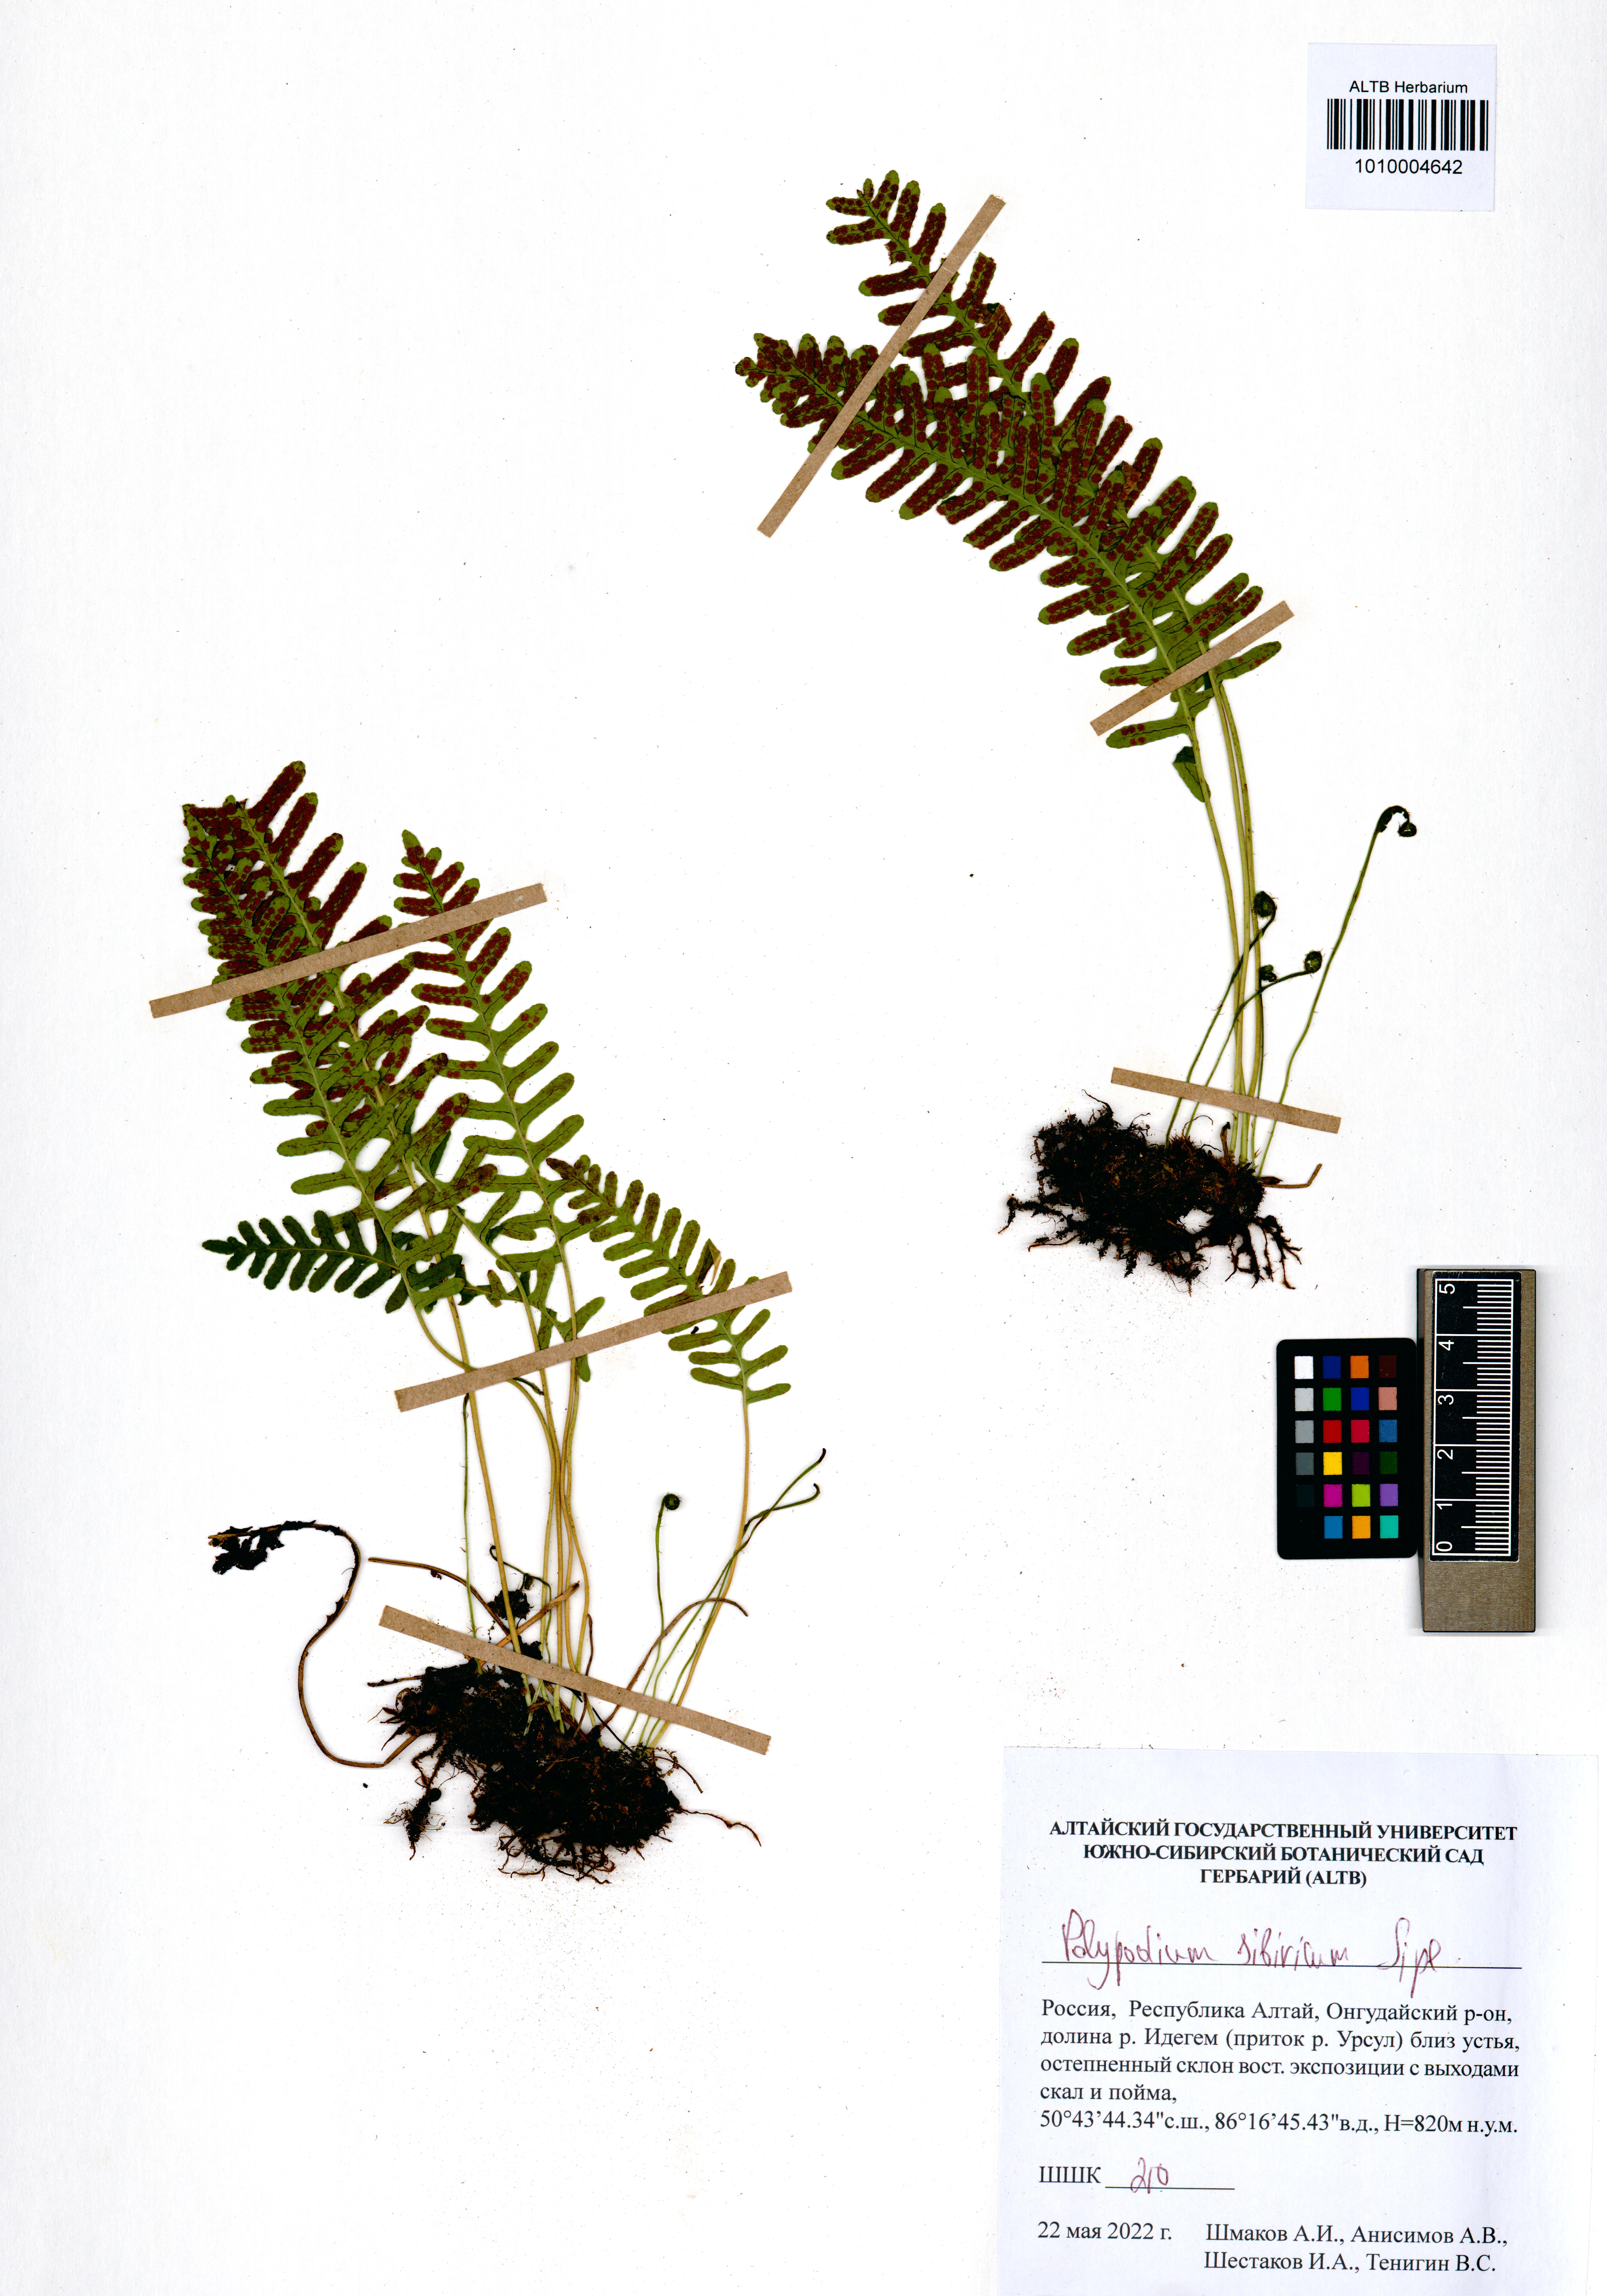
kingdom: Plantae
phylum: Tracheophyta
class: Polypodiopsida
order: Polypodiales
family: Polypodiaceae
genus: Polypodium
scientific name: Polypodium sibiricum
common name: Siberian polypody
